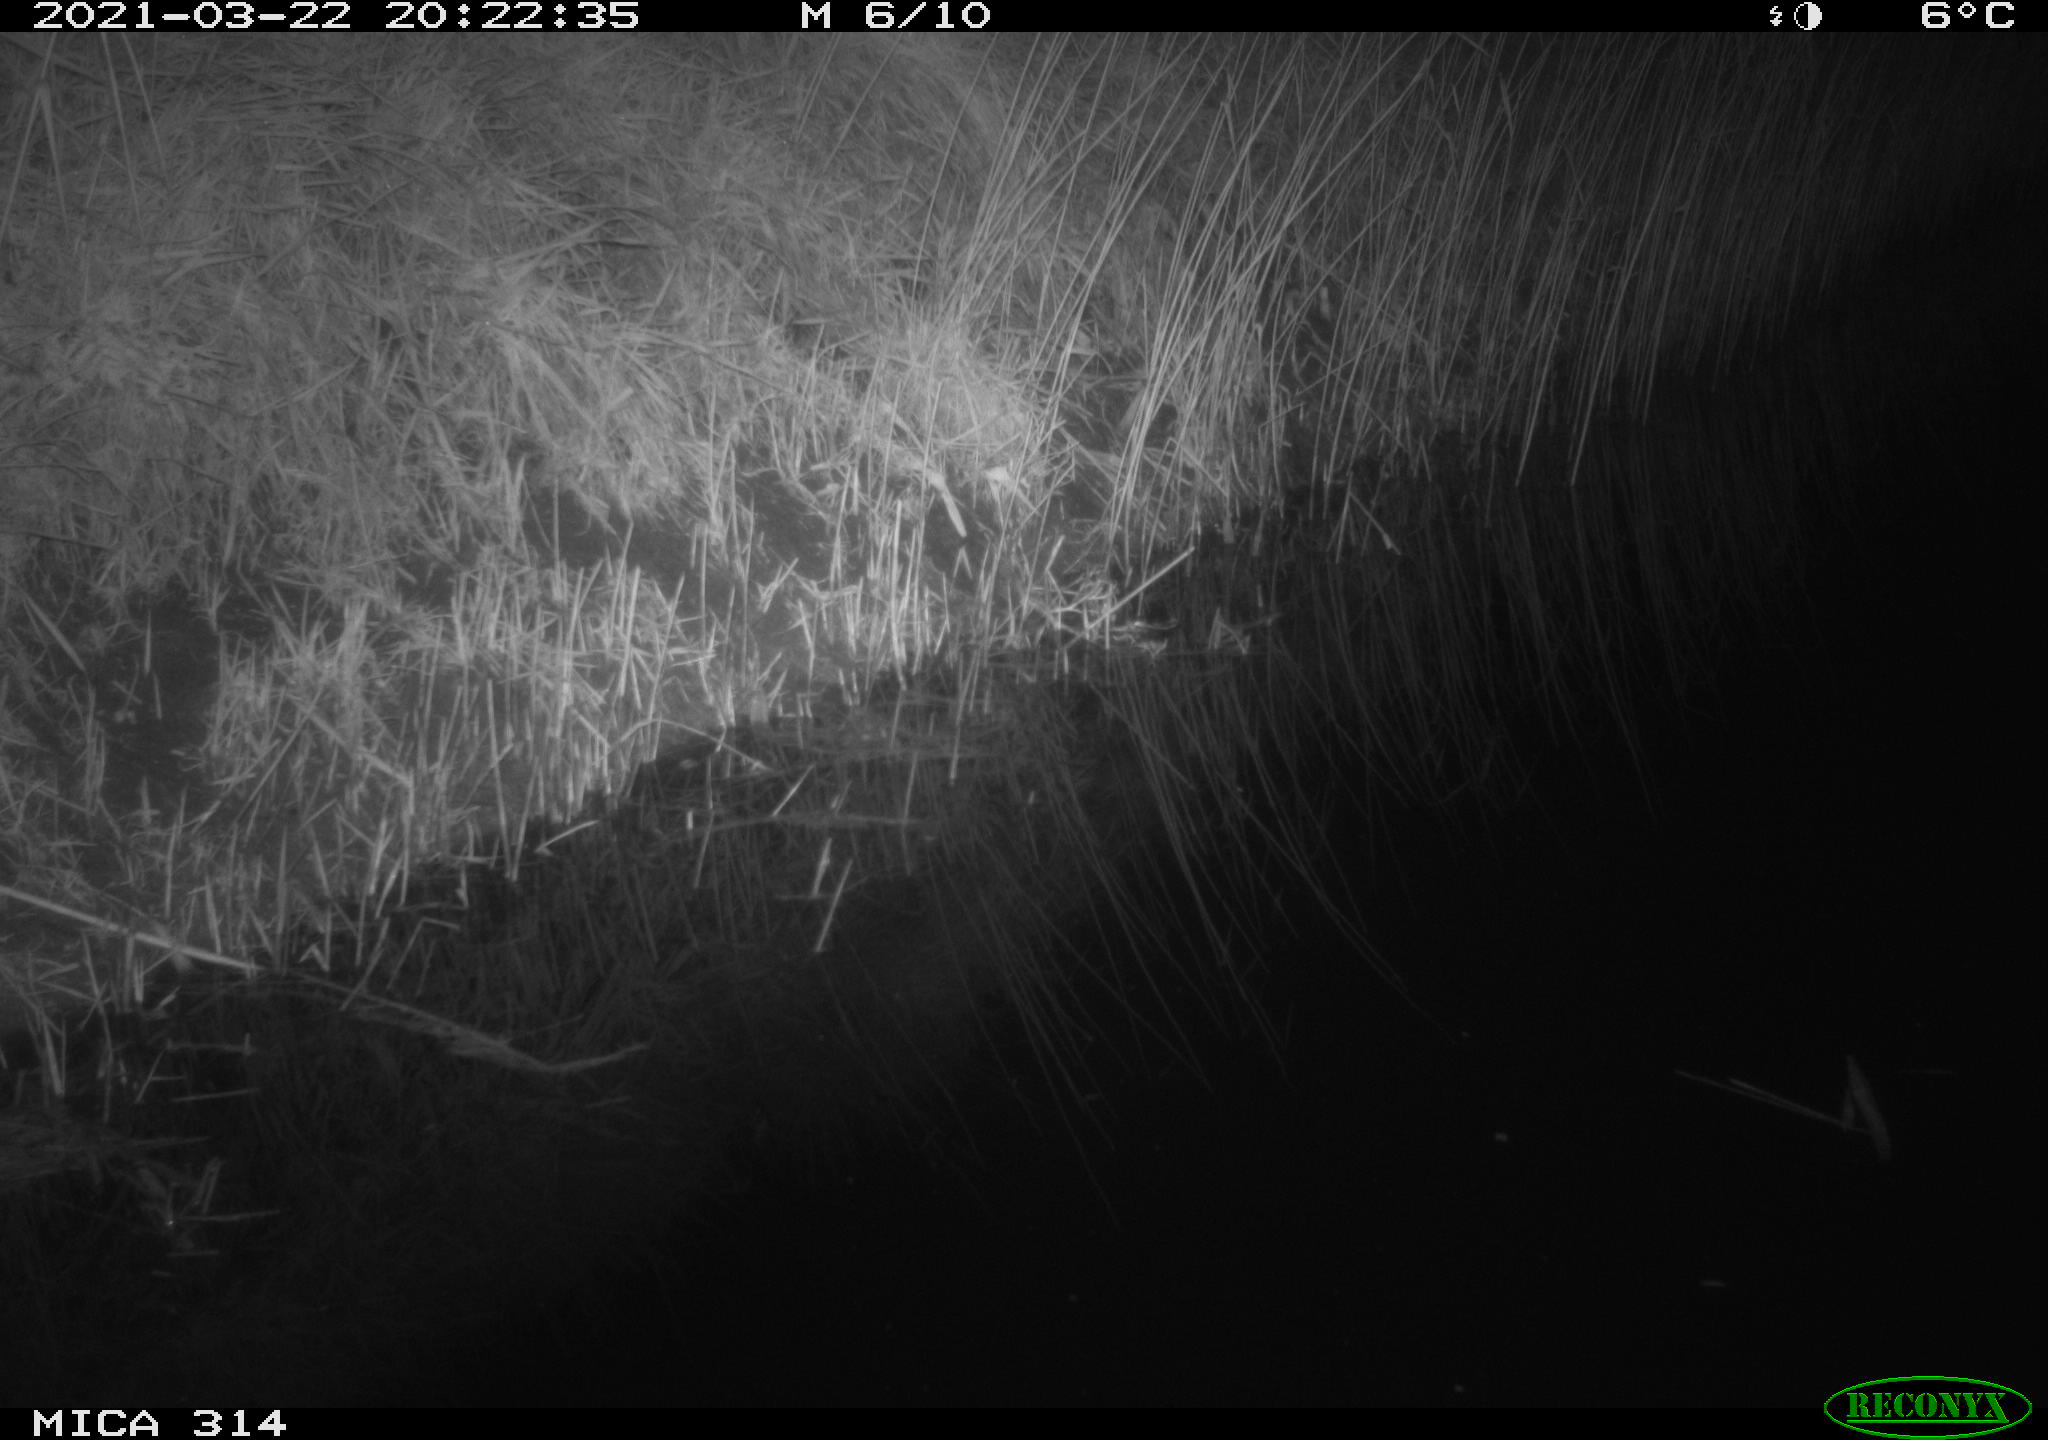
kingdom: Animalia
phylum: Chordata
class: Mammalia
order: Rodentia
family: Muridae
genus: Rattus
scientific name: Rattus norvegicus
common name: Brown rat
